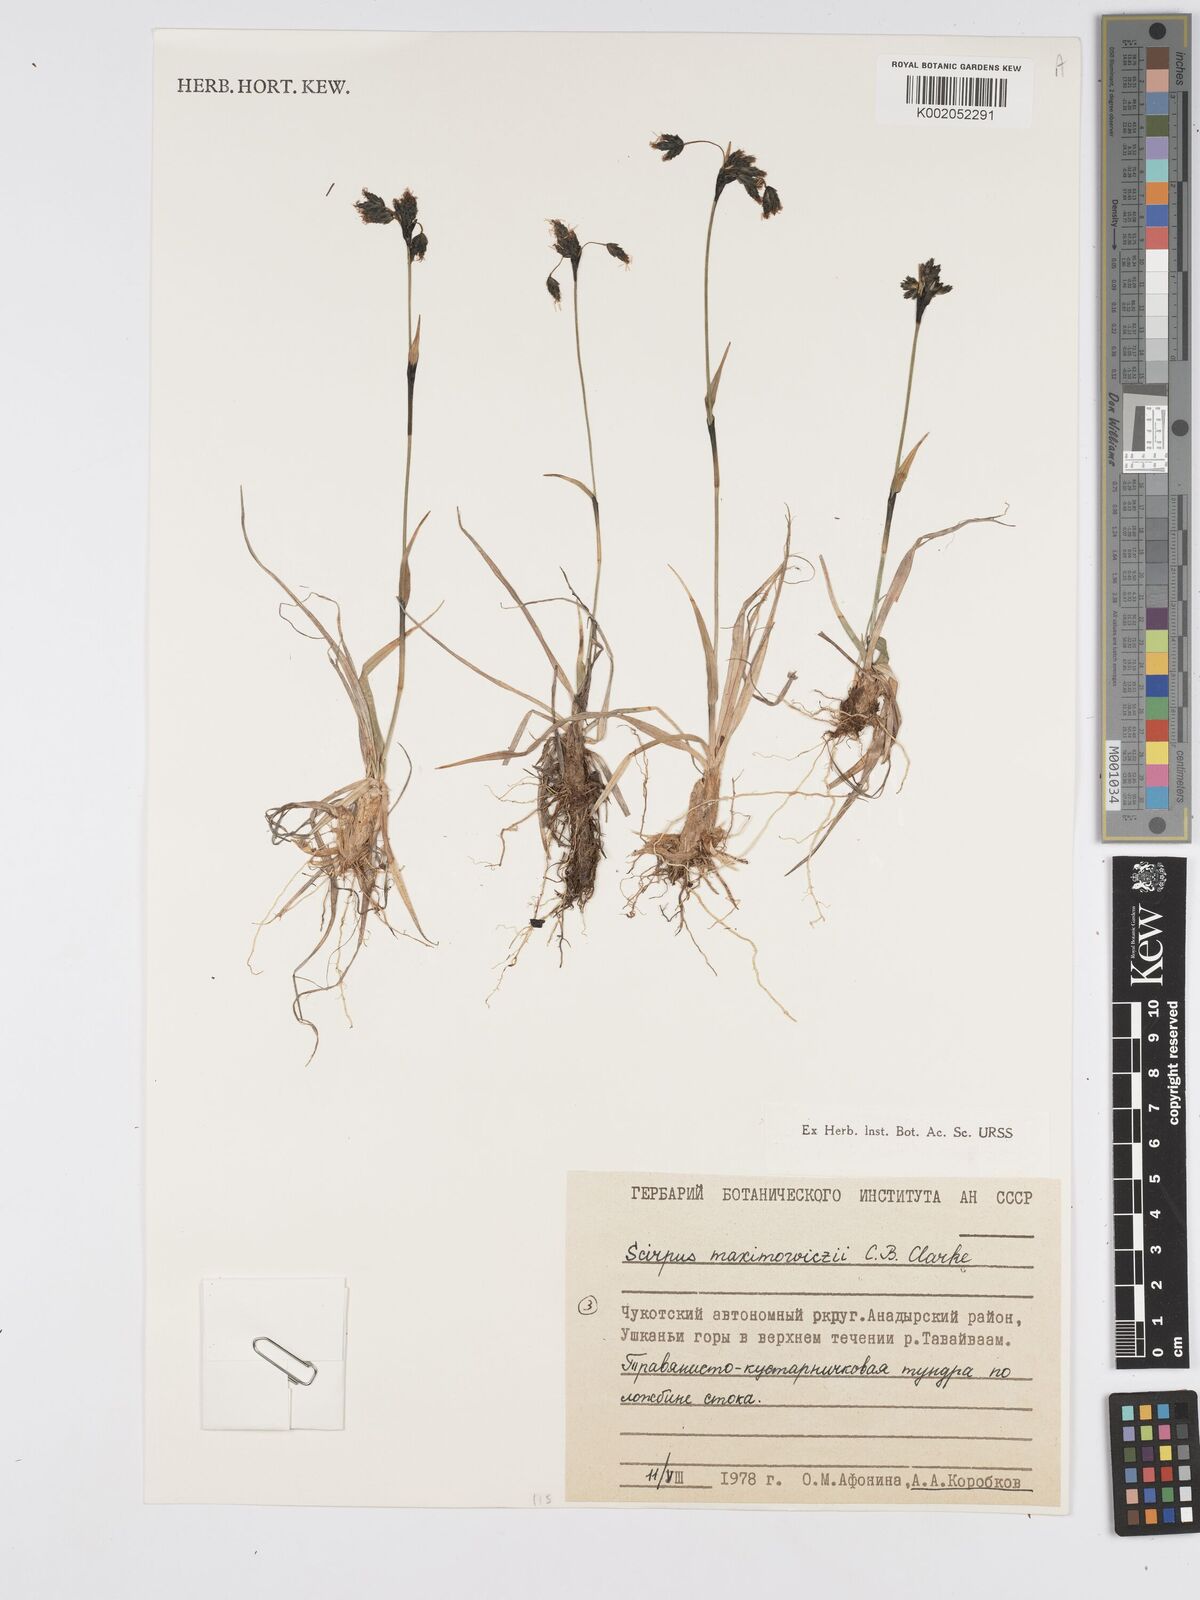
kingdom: Plantae
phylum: Tracheophyta
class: Liliopsida
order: Poales
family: Cyperaceae
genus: Scirpus
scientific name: Scirpus maximowiczii
